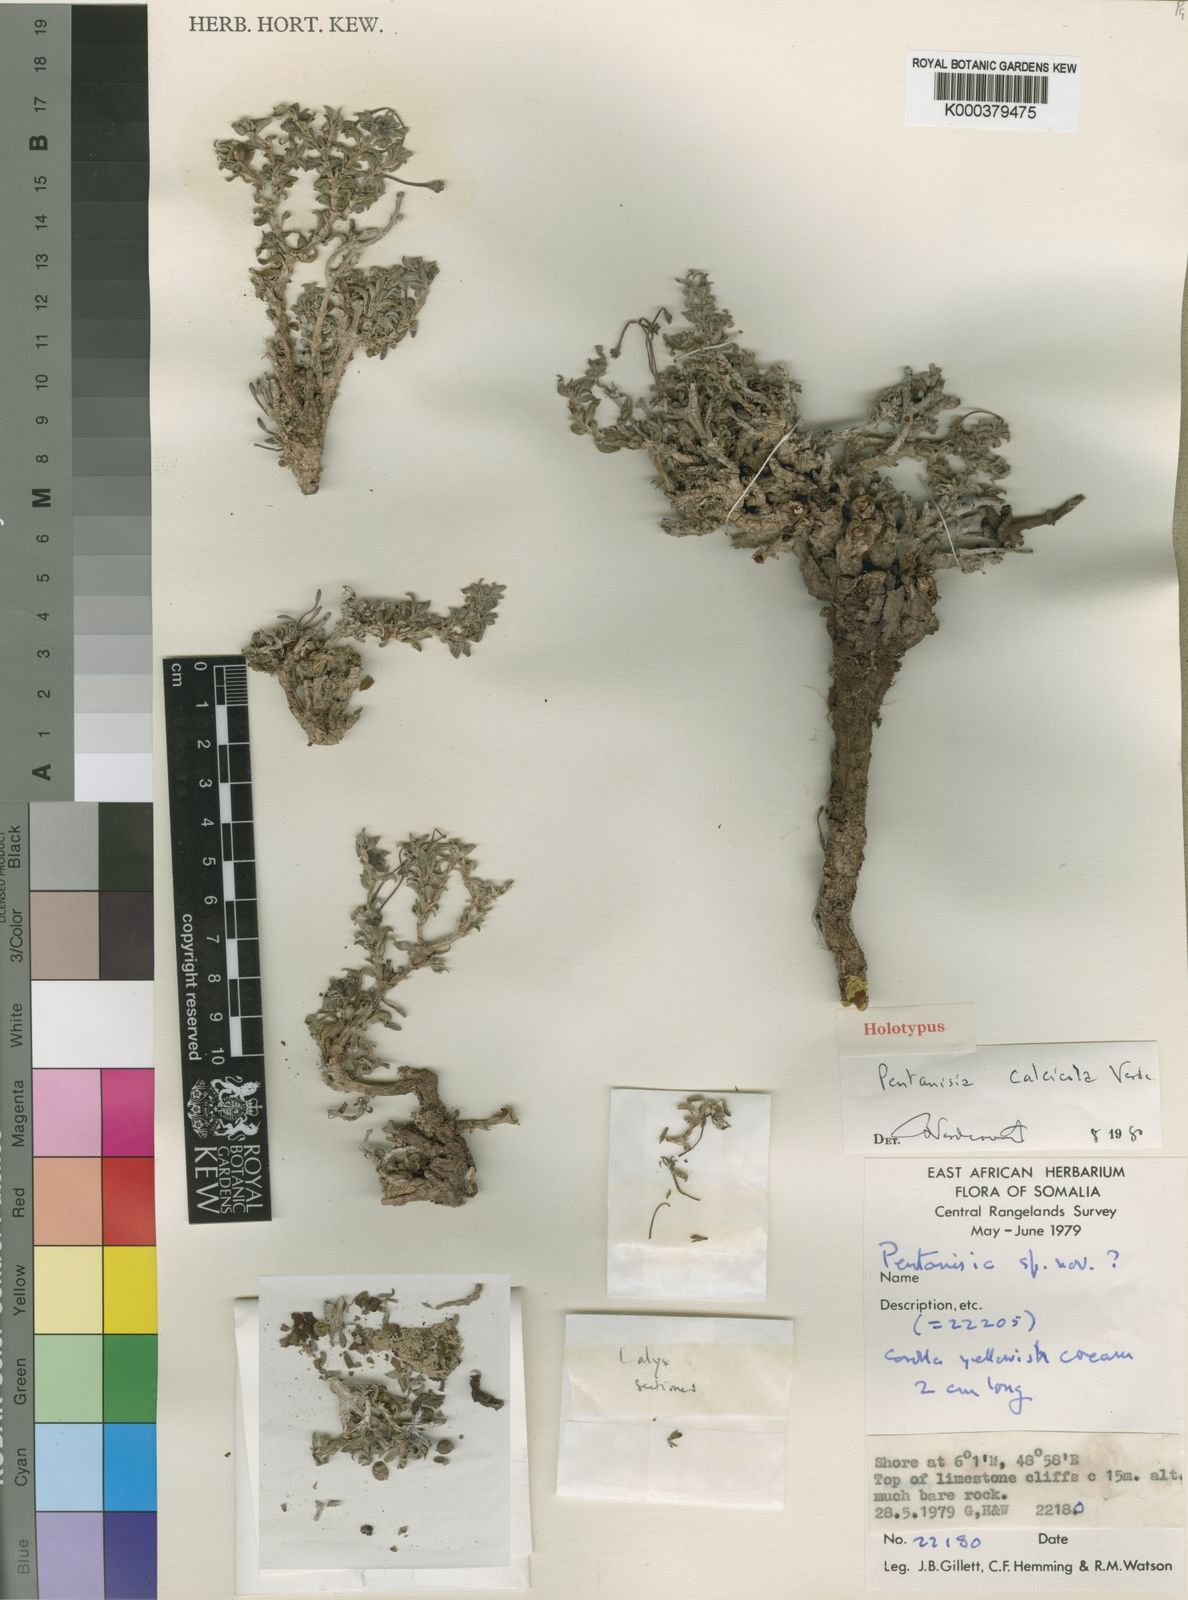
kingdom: Plantae
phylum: Tracheophyta
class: Magnoliopsida
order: Gentianales
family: Rubiaceae
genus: Pentanisia
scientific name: Pentanisia calcicola
